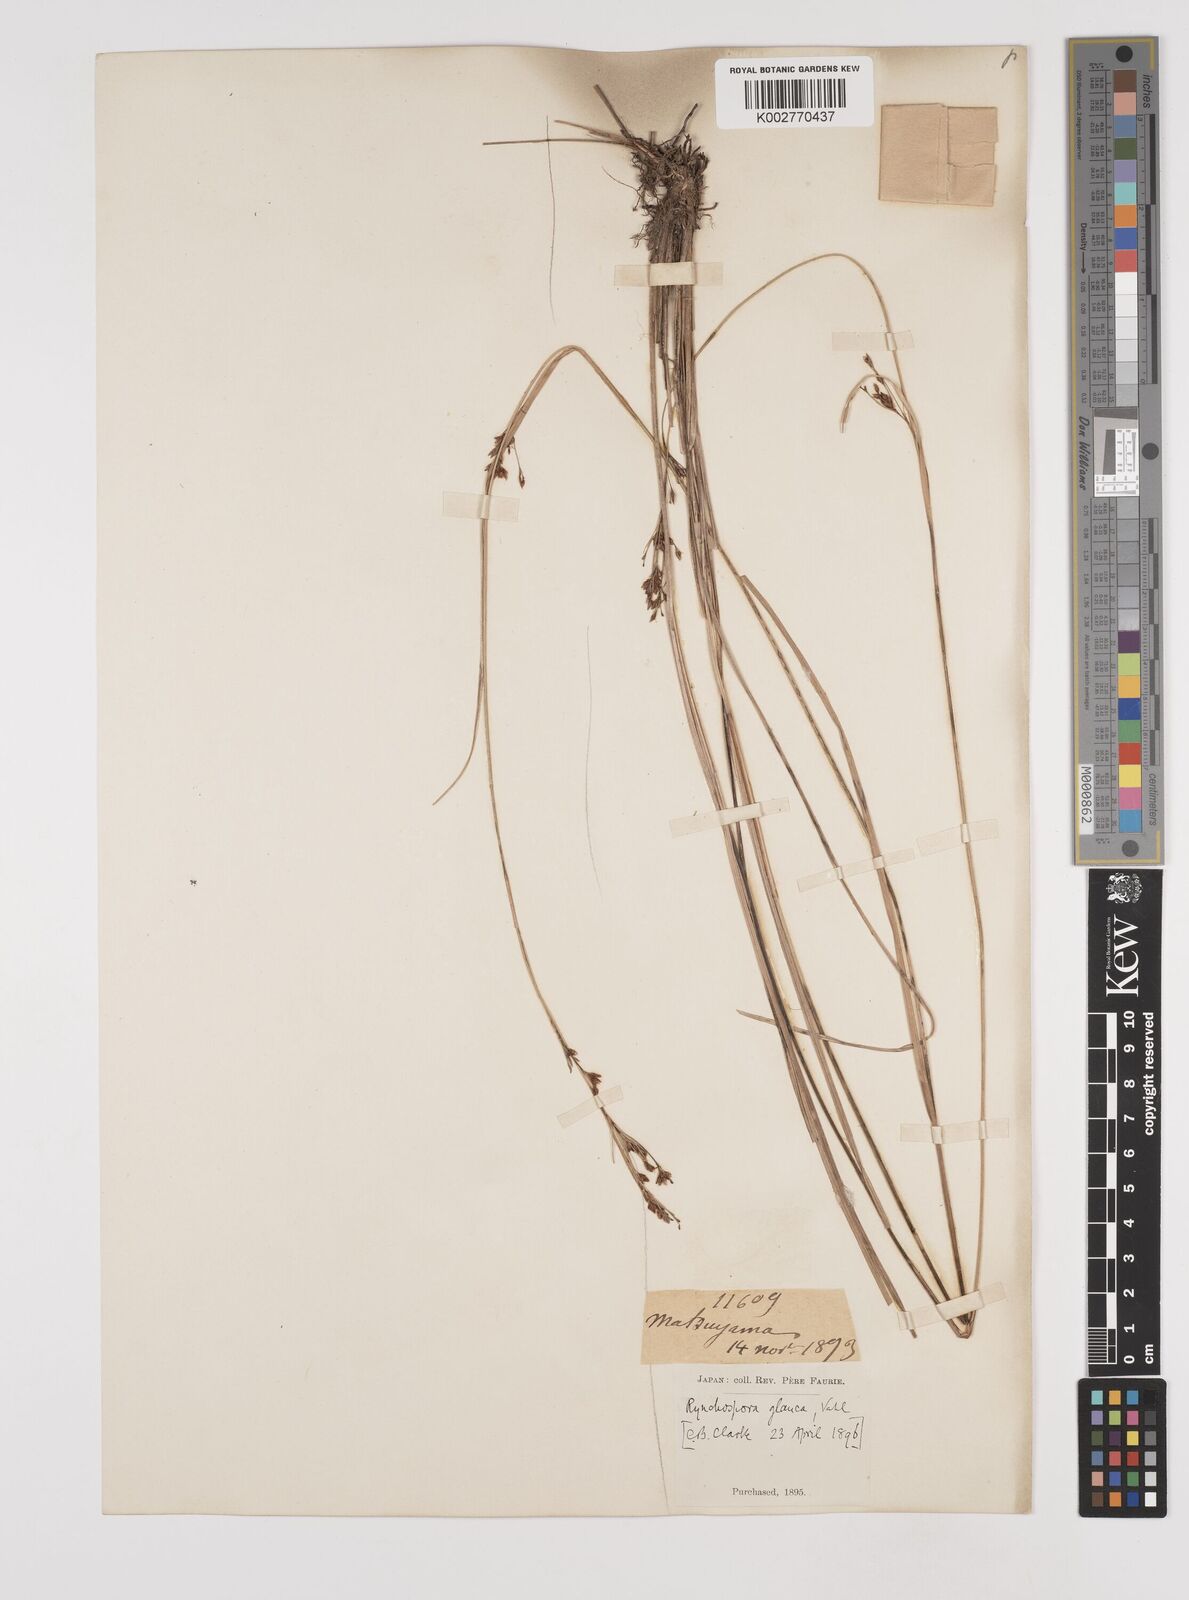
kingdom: Plantae
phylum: Tracheophyta
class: Liliopsida
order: Poales
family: Cyperaceae
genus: Rhynchospora
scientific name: Rhynchospora
